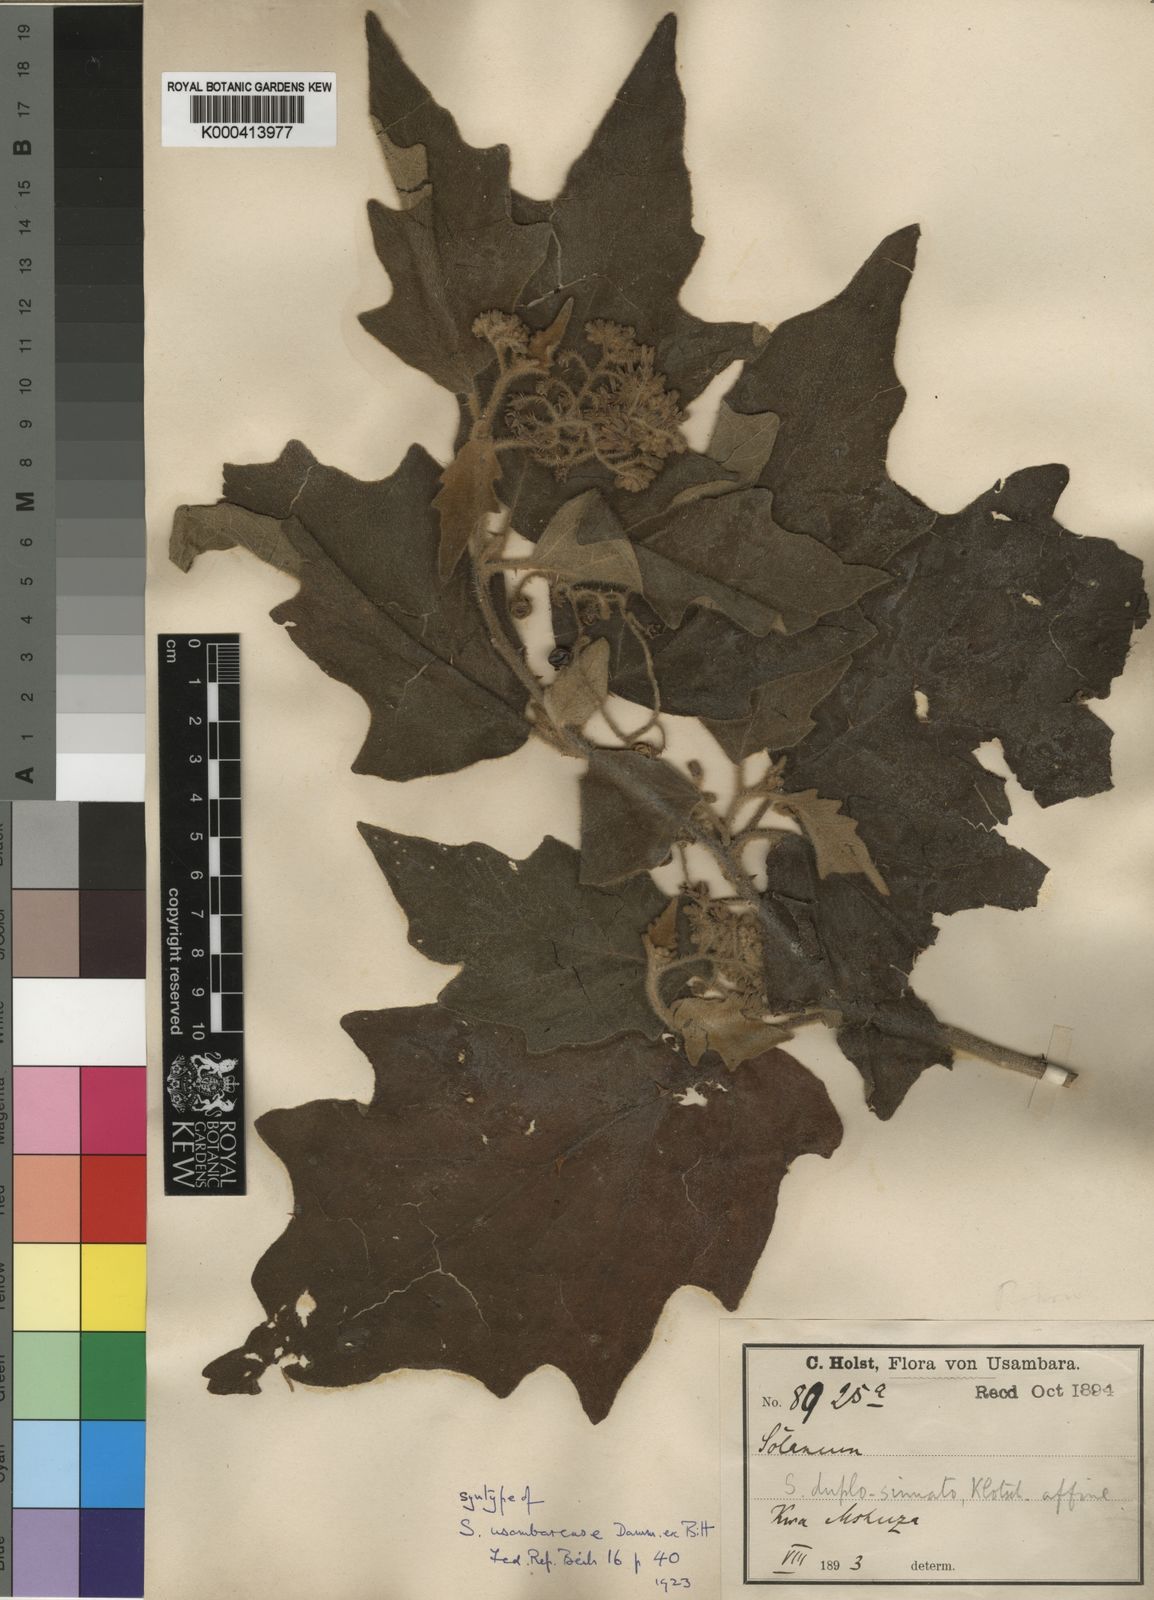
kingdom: Plantae
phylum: Tracheophyta
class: Magnoliopsida
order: Solanales
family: Solanaceae
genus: Solanum
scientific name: Solanum usambarense
